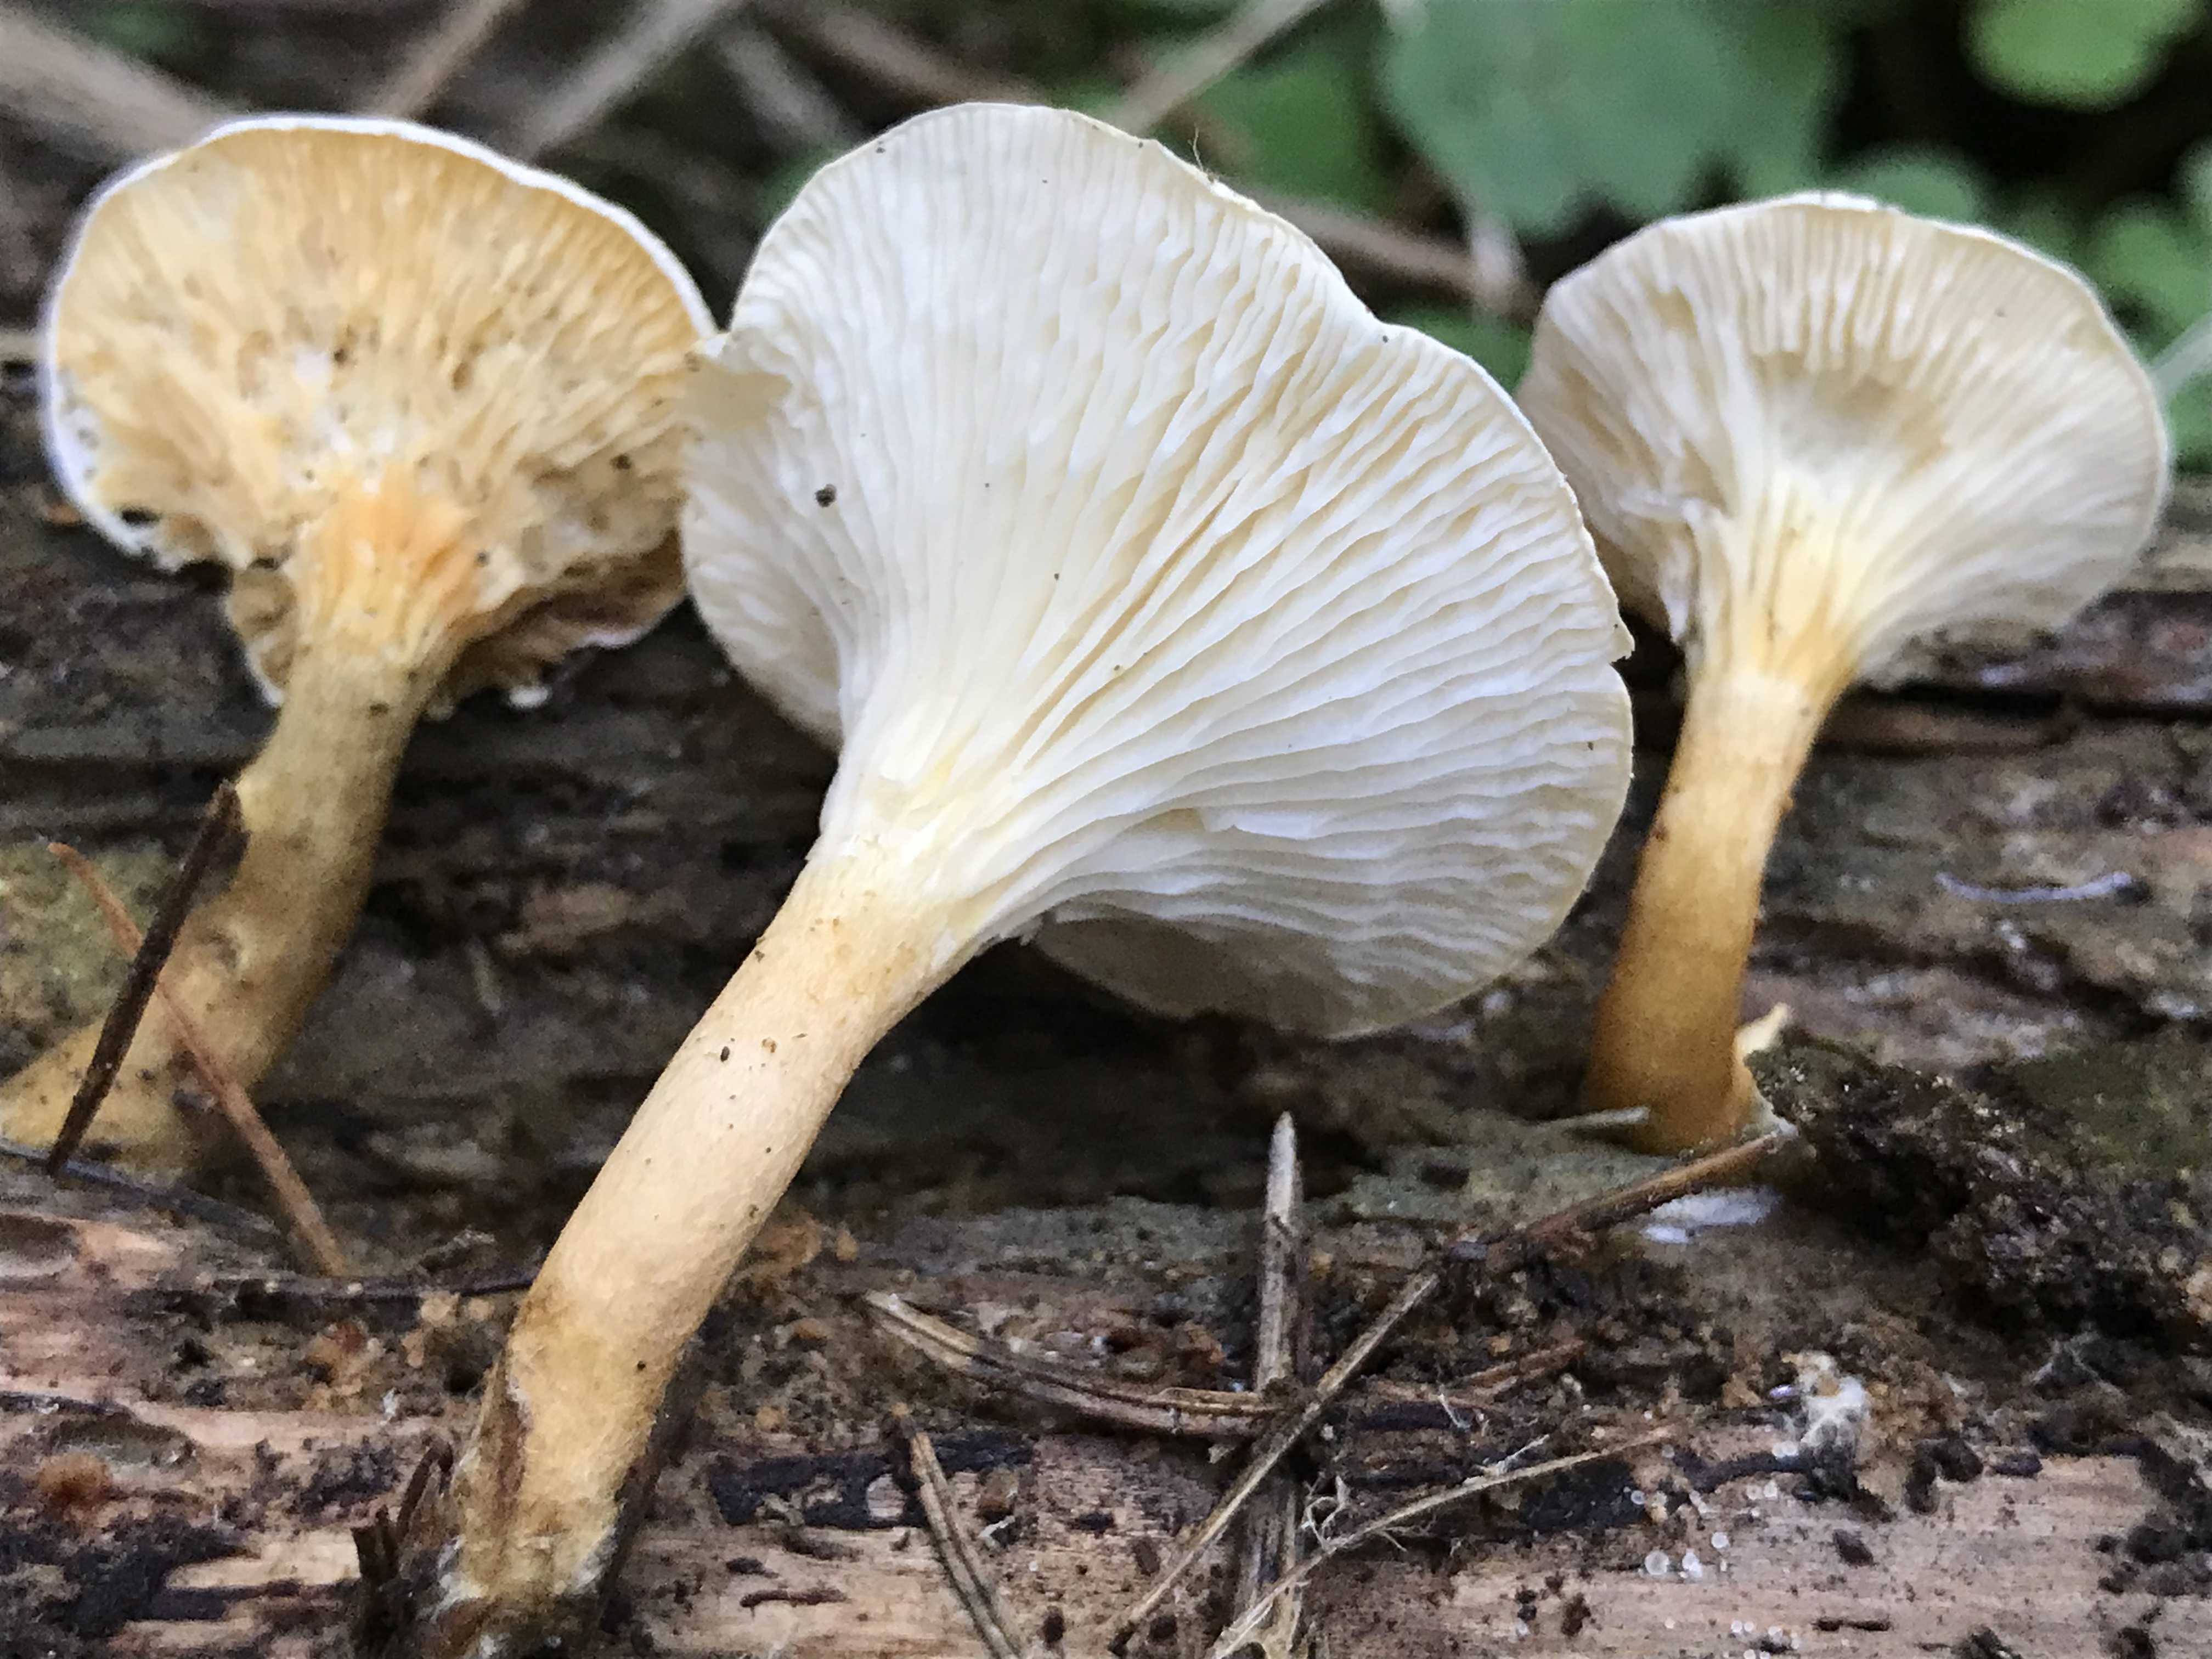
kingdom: Fungi
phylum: Basidiomycota
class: Agaricomycetes
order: Boletales
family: Hygrophoropsidaceae
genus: Hygrophoropsis
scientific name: Hygrophoropsis pallida
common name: bleg orangekantarel
